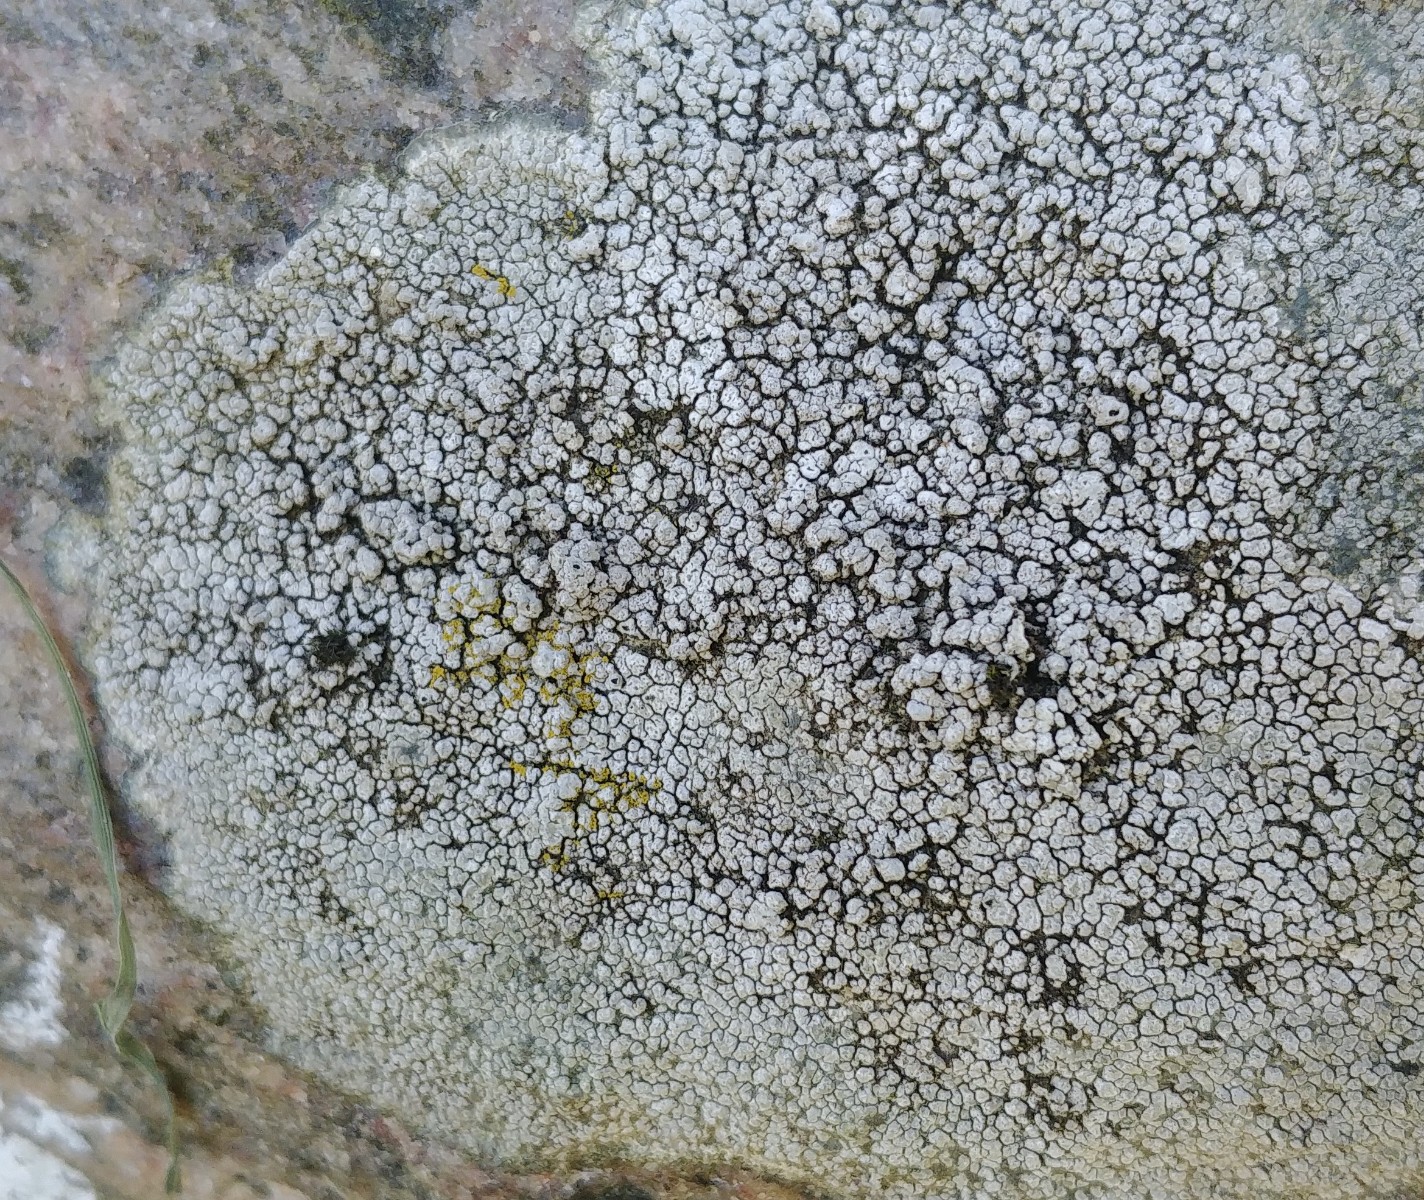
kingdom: Fungi
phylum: Ascomycota
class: Lecanoromycetes
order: Pertusariales
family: Megasporaceae
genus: Aspicilia
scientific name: Aspicilia cinerea
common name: grå hulskivelav
